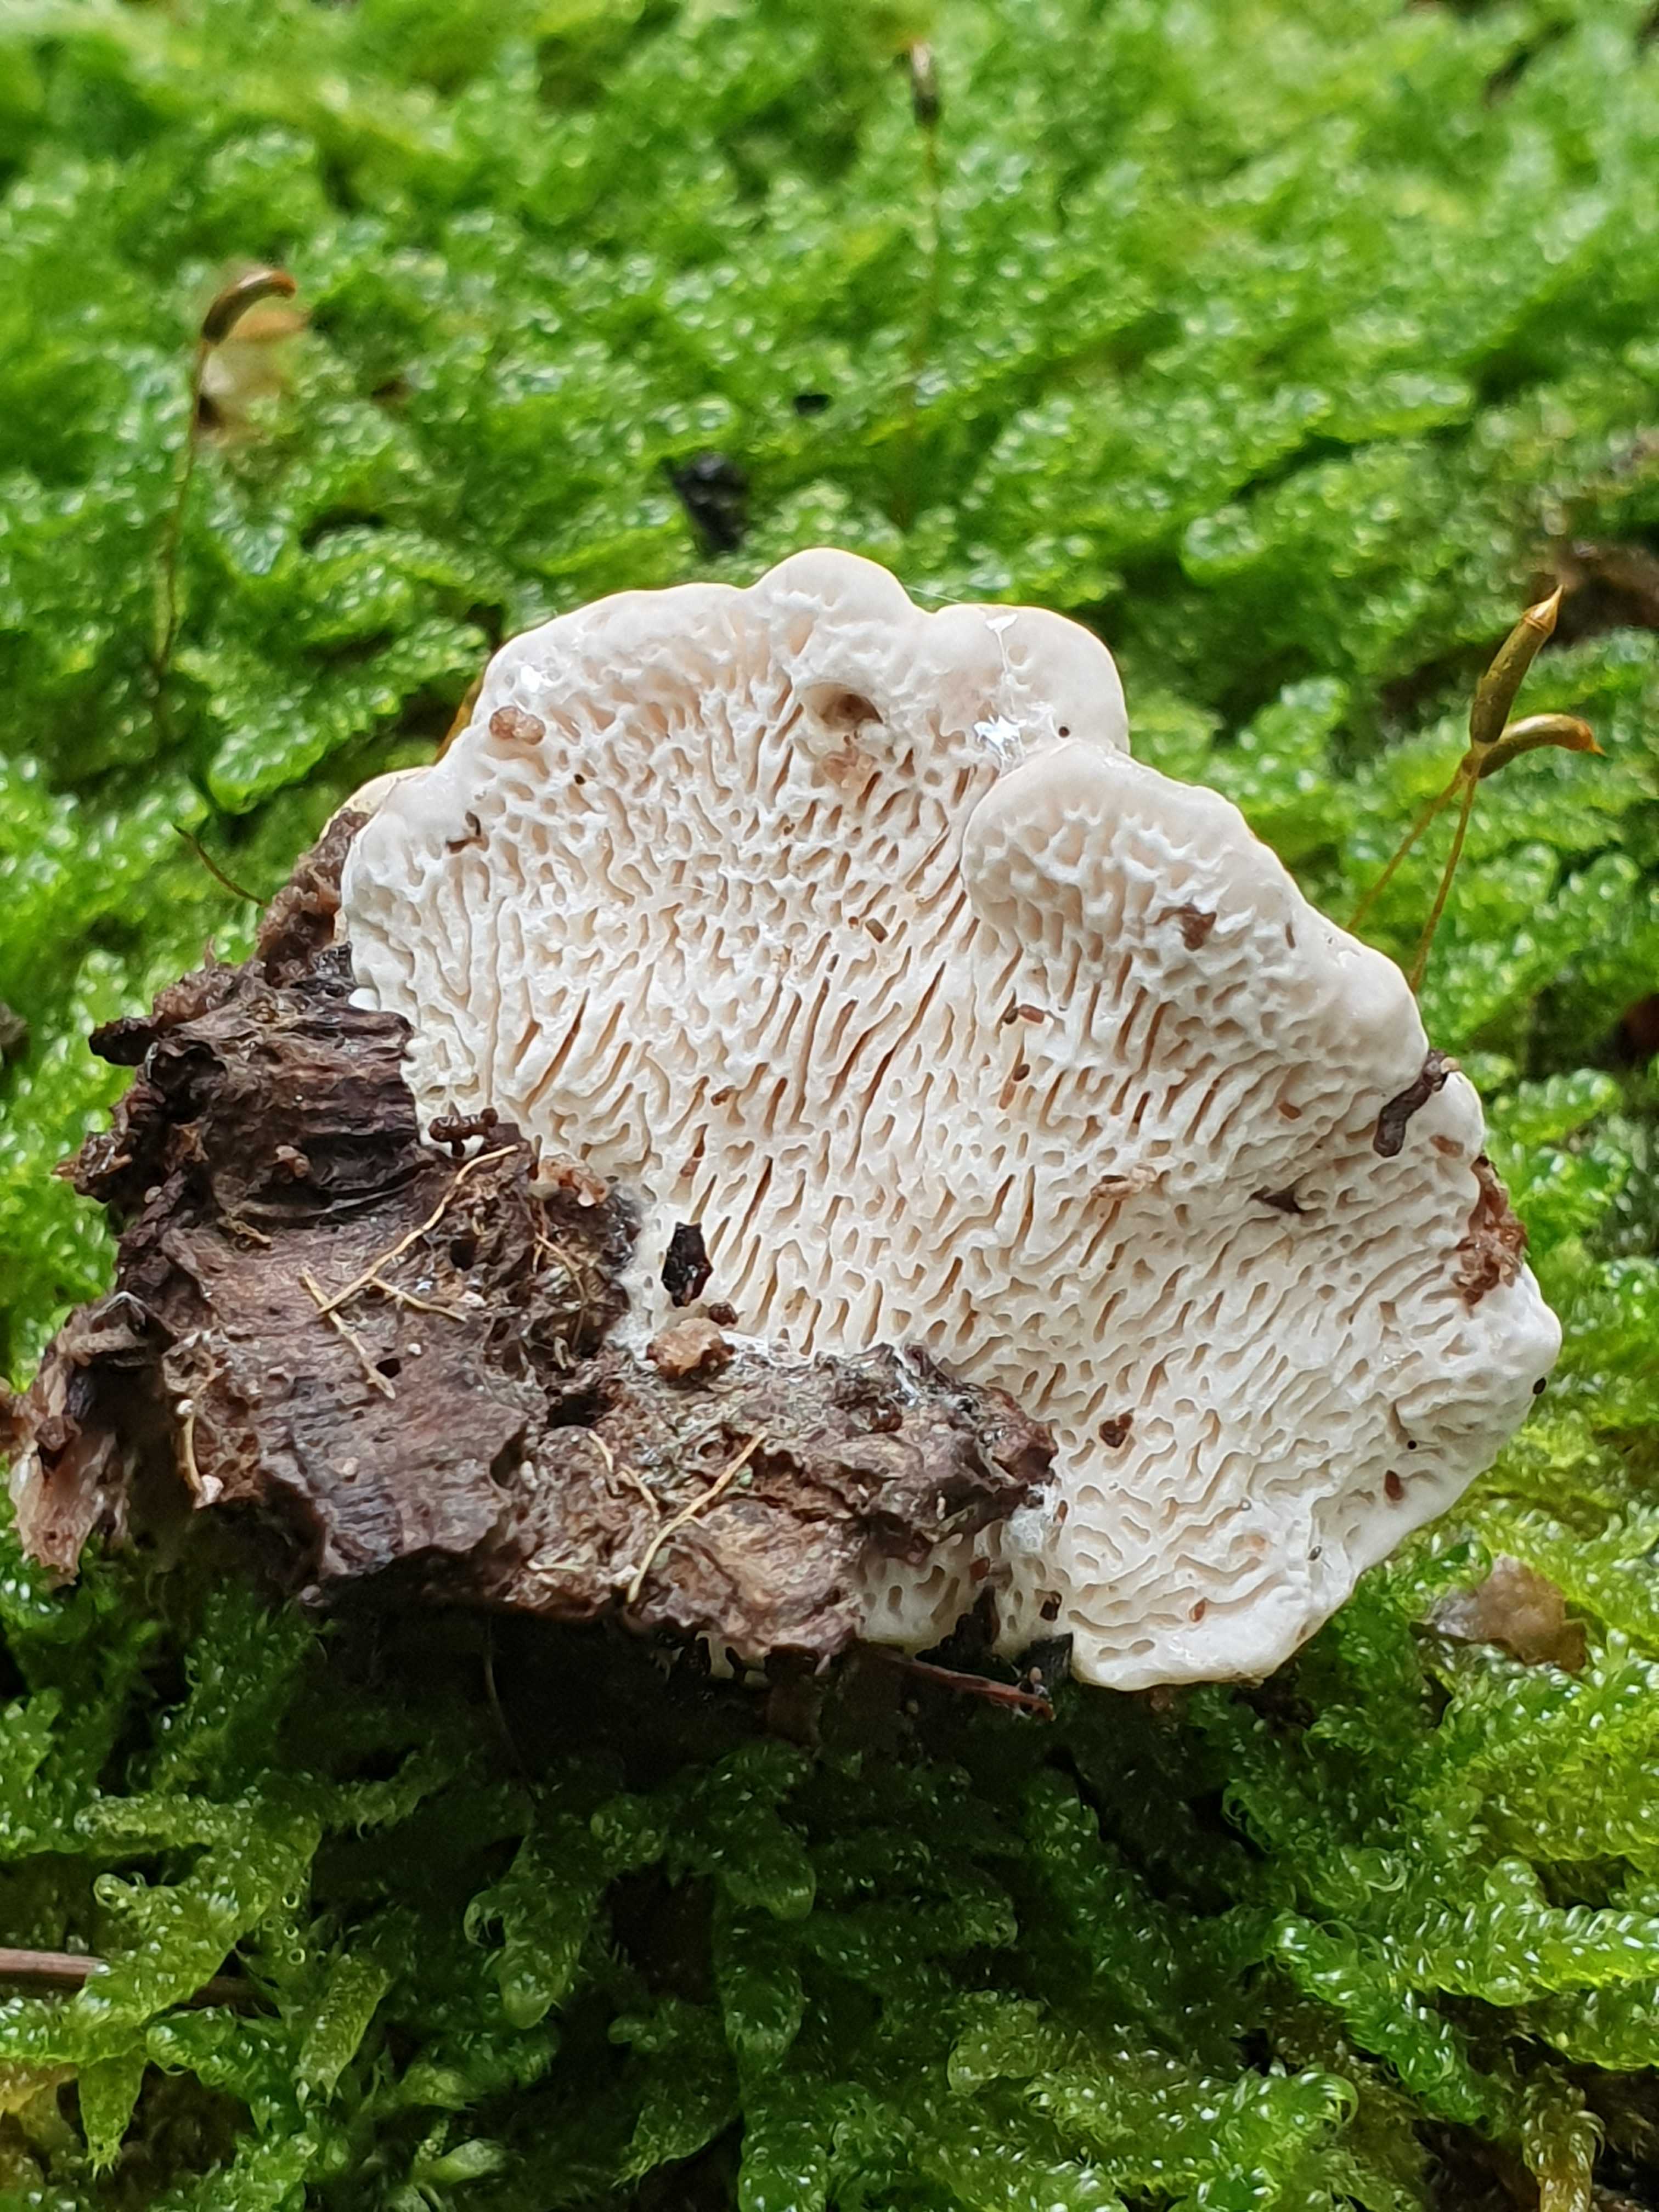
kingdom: Fungi
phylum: Basidiomycota
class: Agaricomycetes
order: Polyporales
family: Polyporaceae
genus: Trametes
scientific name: Trametes gibbosa
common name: puklet læderporesvamp
